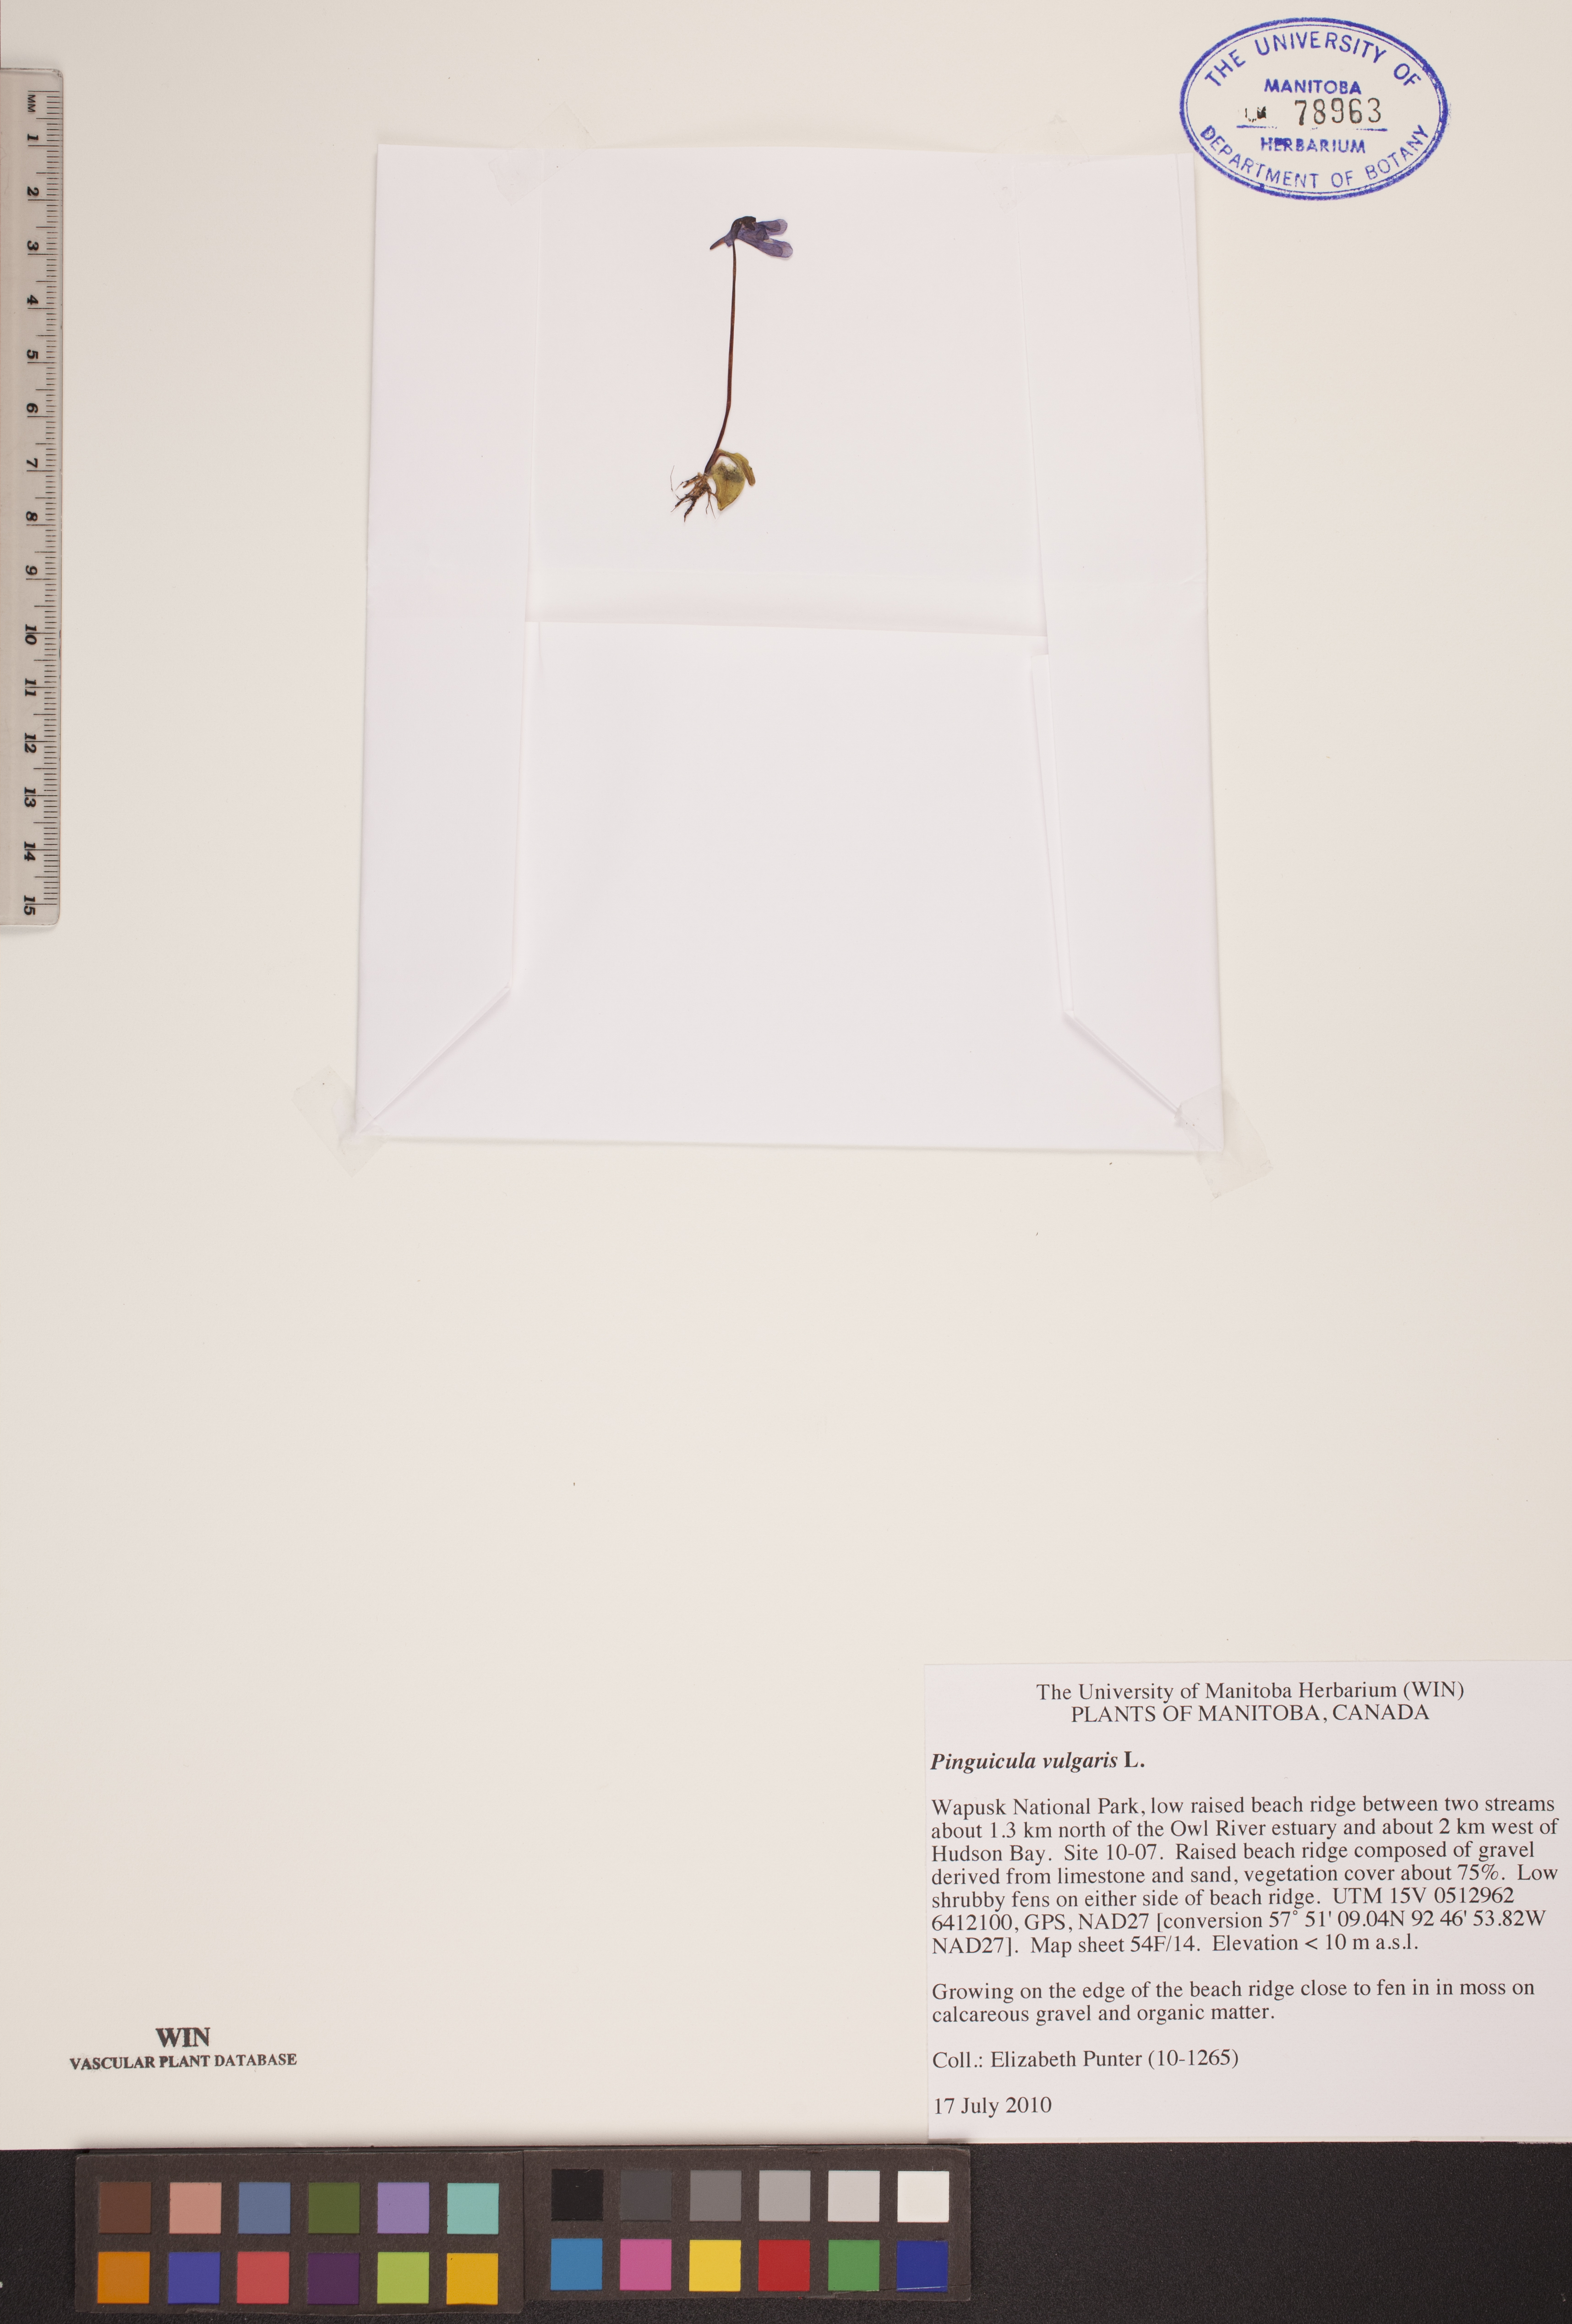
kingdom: Plantae
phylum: Tracheophyta
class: Magnoliopsida
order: Lamiales
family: Lentibulariaceae
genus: Pinguicula
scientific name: Pinguicula vulgaris
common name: Common butterwort
